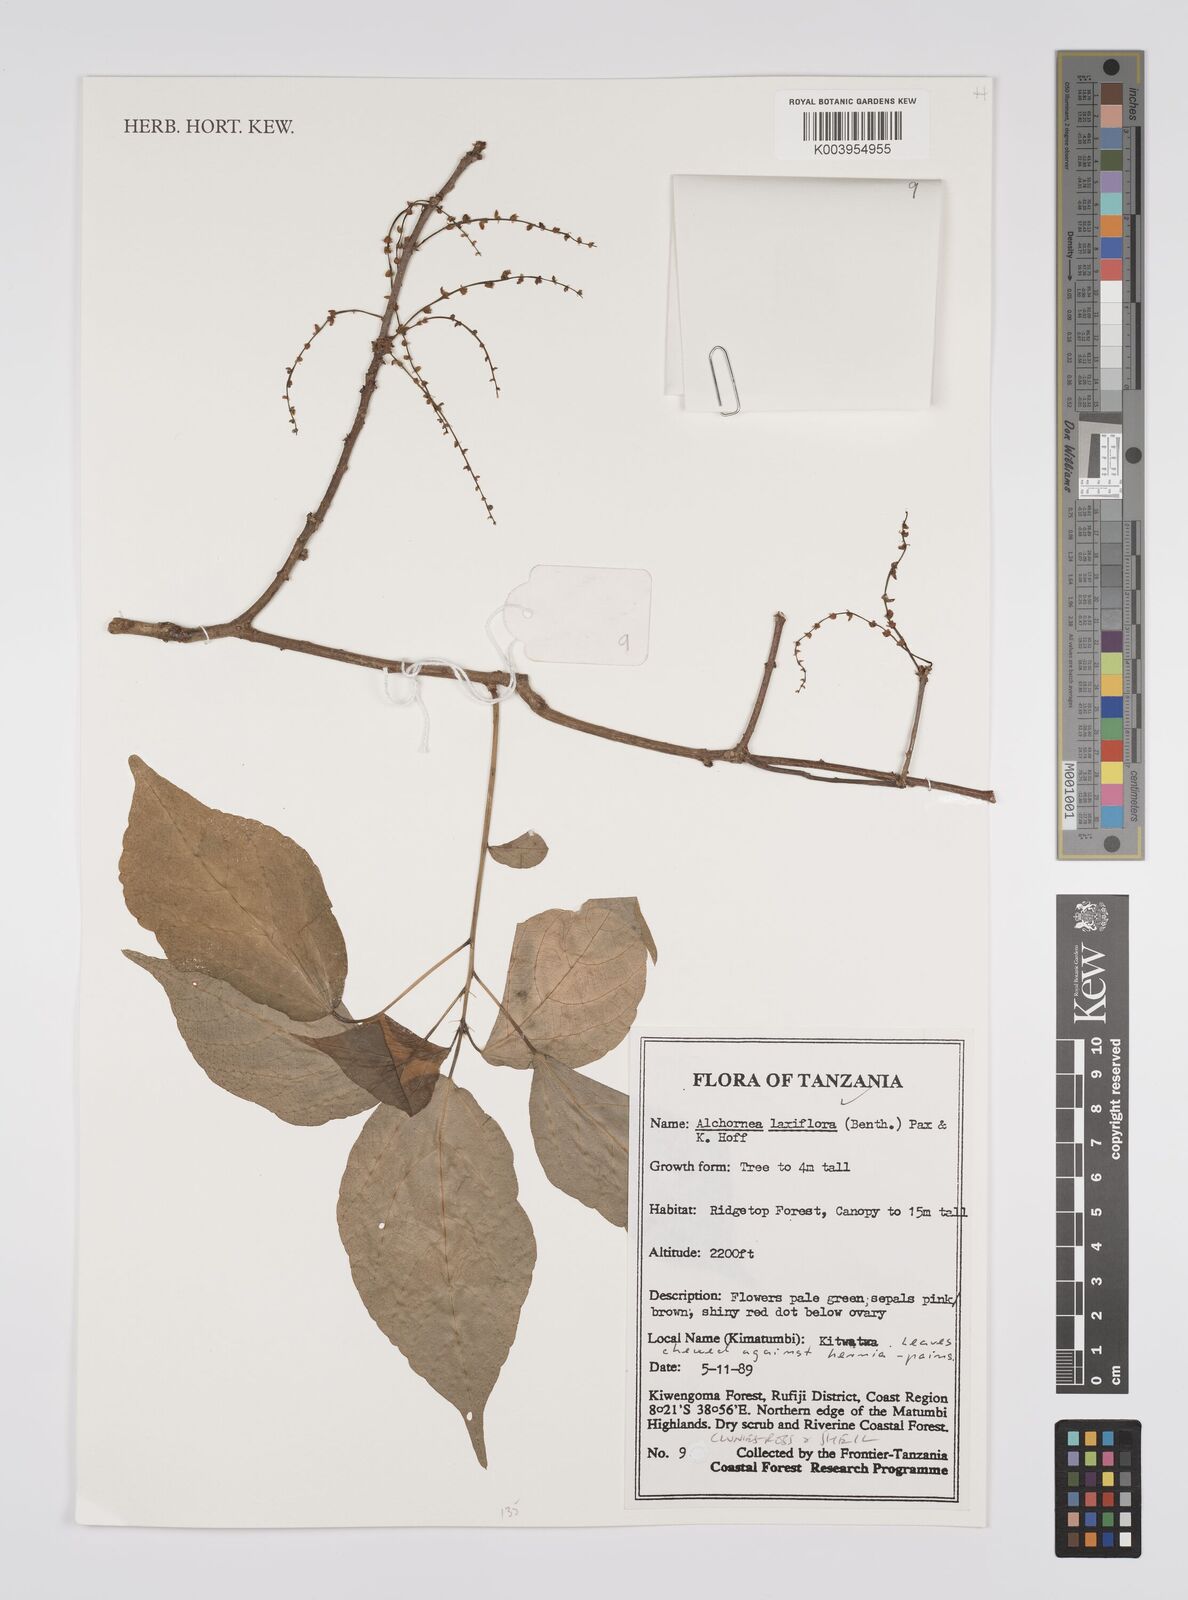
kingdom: Plantae
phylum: Tracheophyta
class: Magnoliopsida
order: Malpighiales
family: Euphorbiaceae
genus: Alchornea
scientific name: Alchornea laxiflora
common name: Lowveld bead-string
